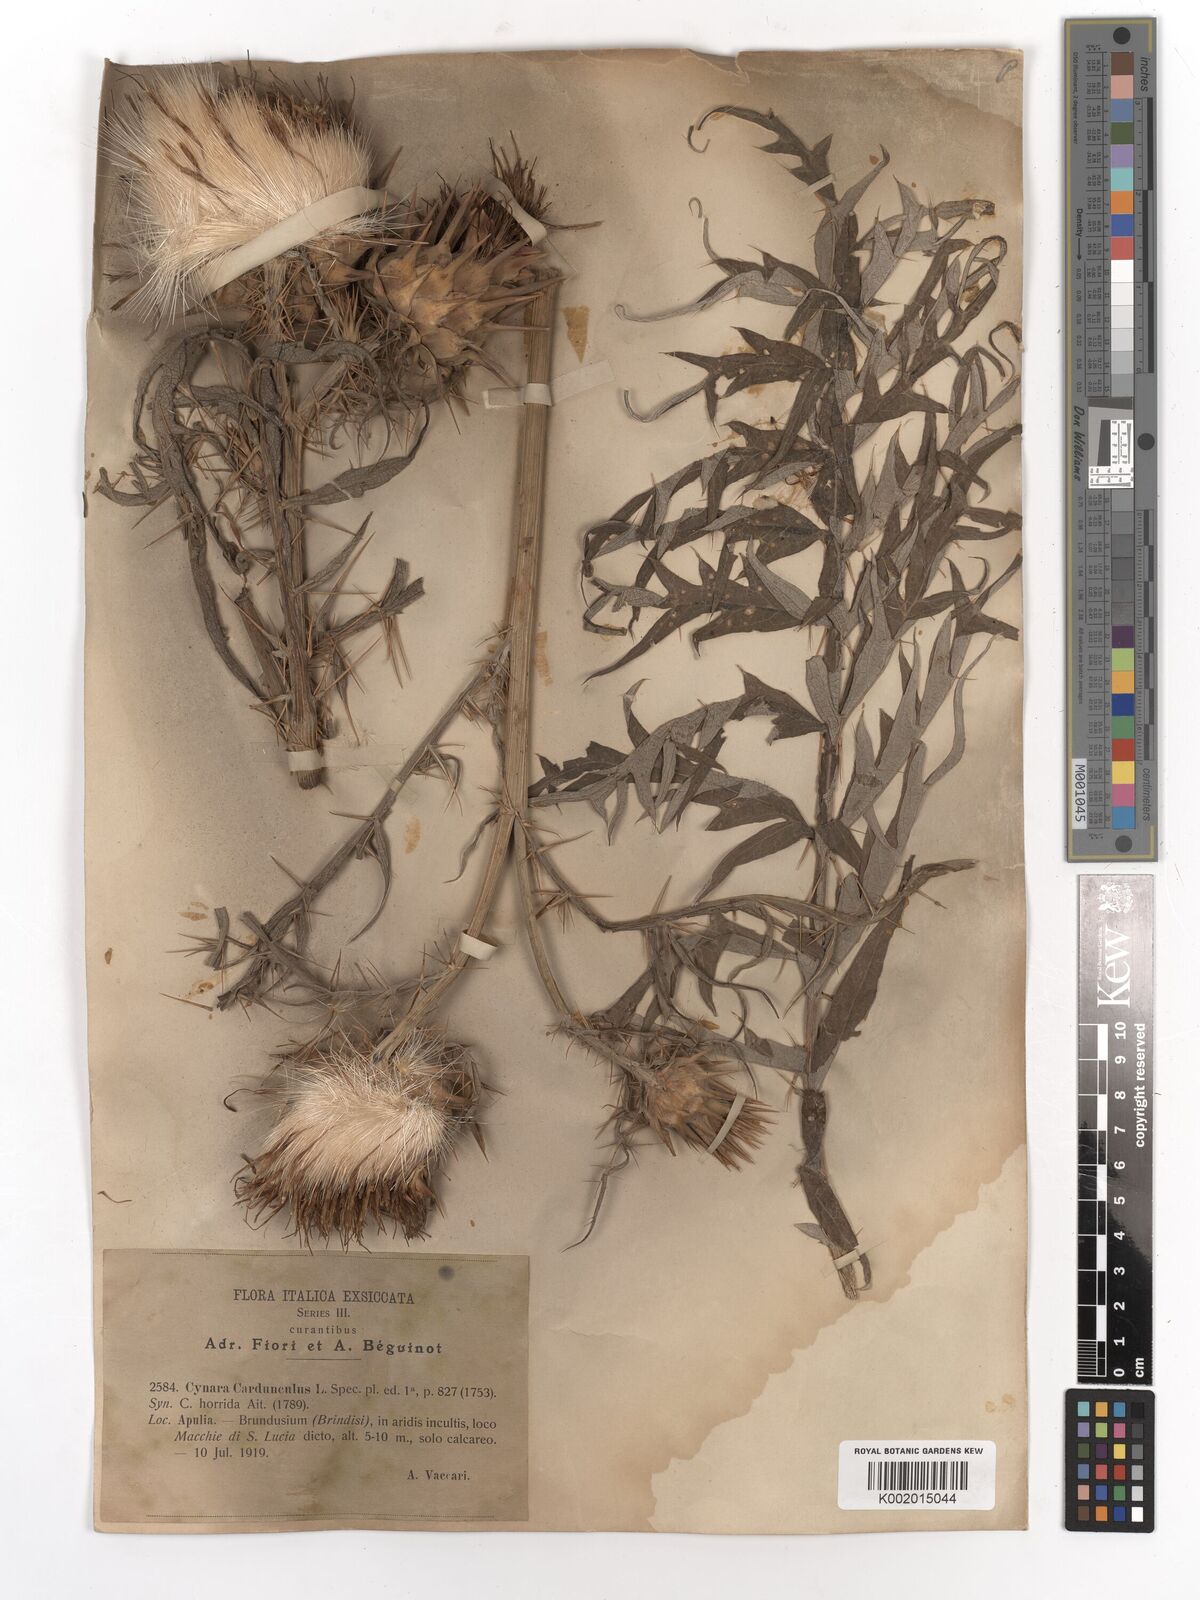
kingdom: Plantae
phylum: Tracheophyta
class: Magnoliopsida
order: Asterales
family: Asteraceae
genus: Cynara
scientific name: Cynara cardunculus
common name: Globe artichoke
